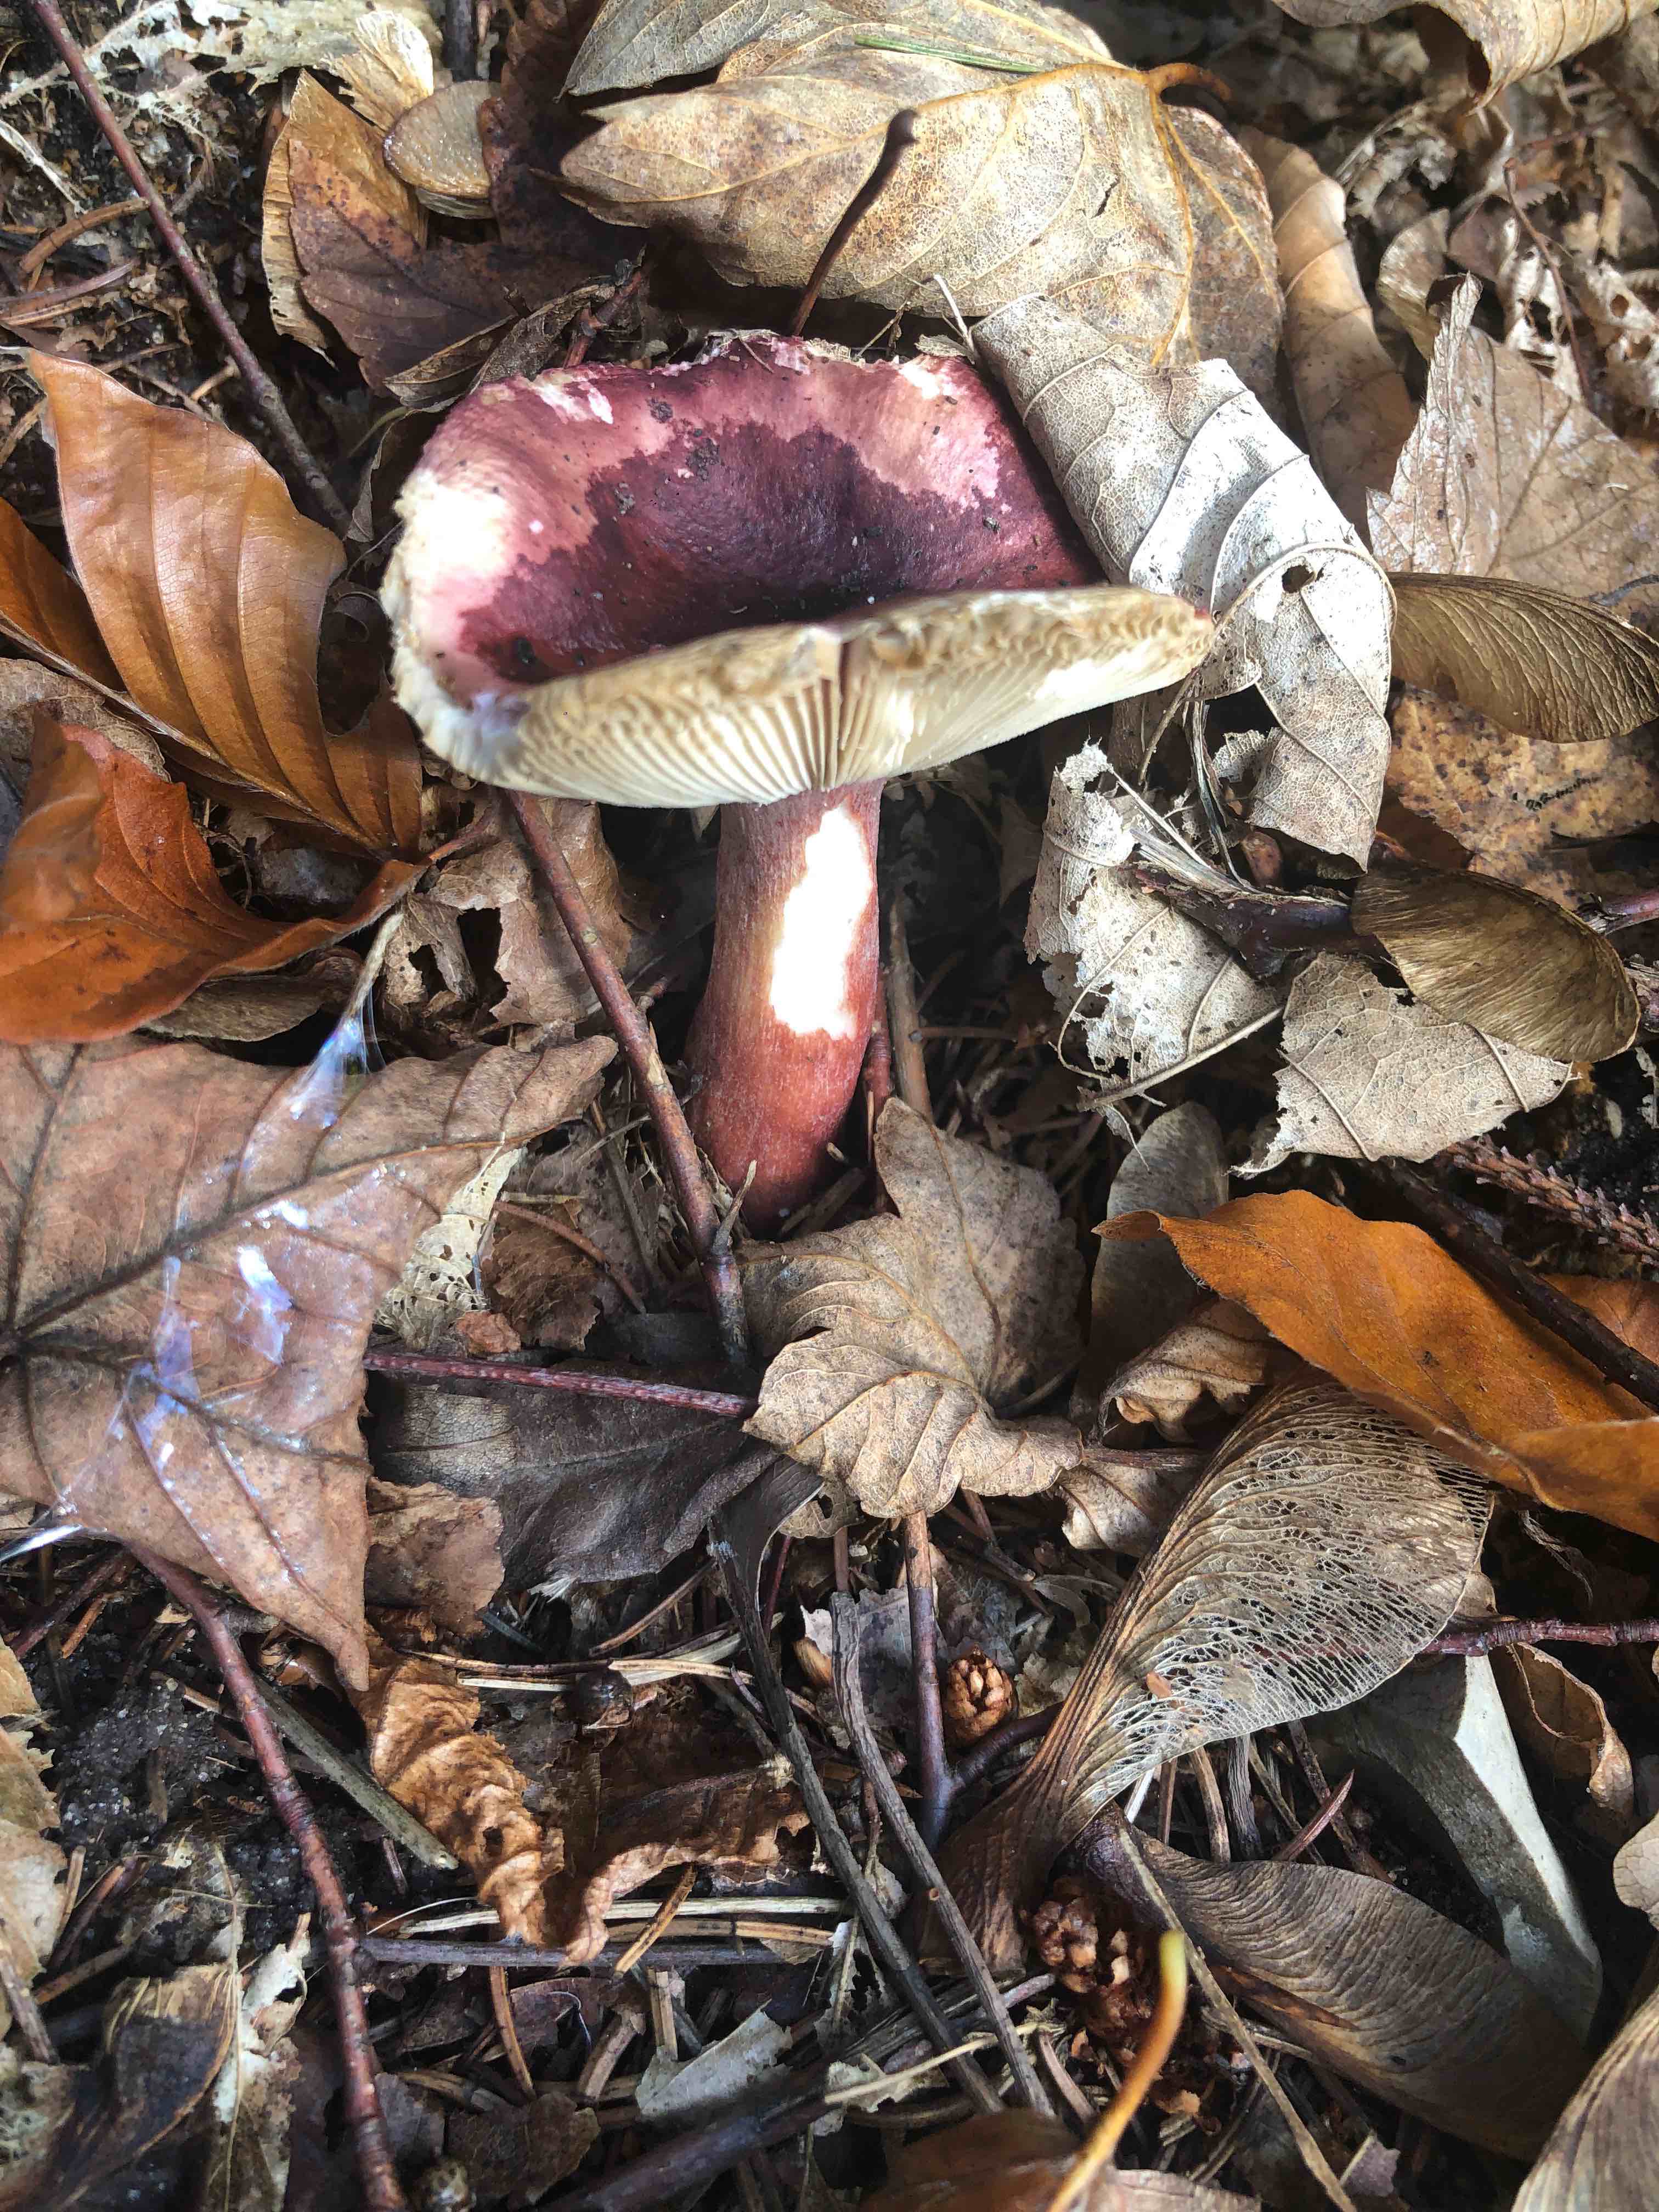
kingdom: Fungi
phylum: Basidiomycota
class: Agaricomycetes
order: Russulales
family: Russulaceae
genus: Russula
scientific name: Russula
